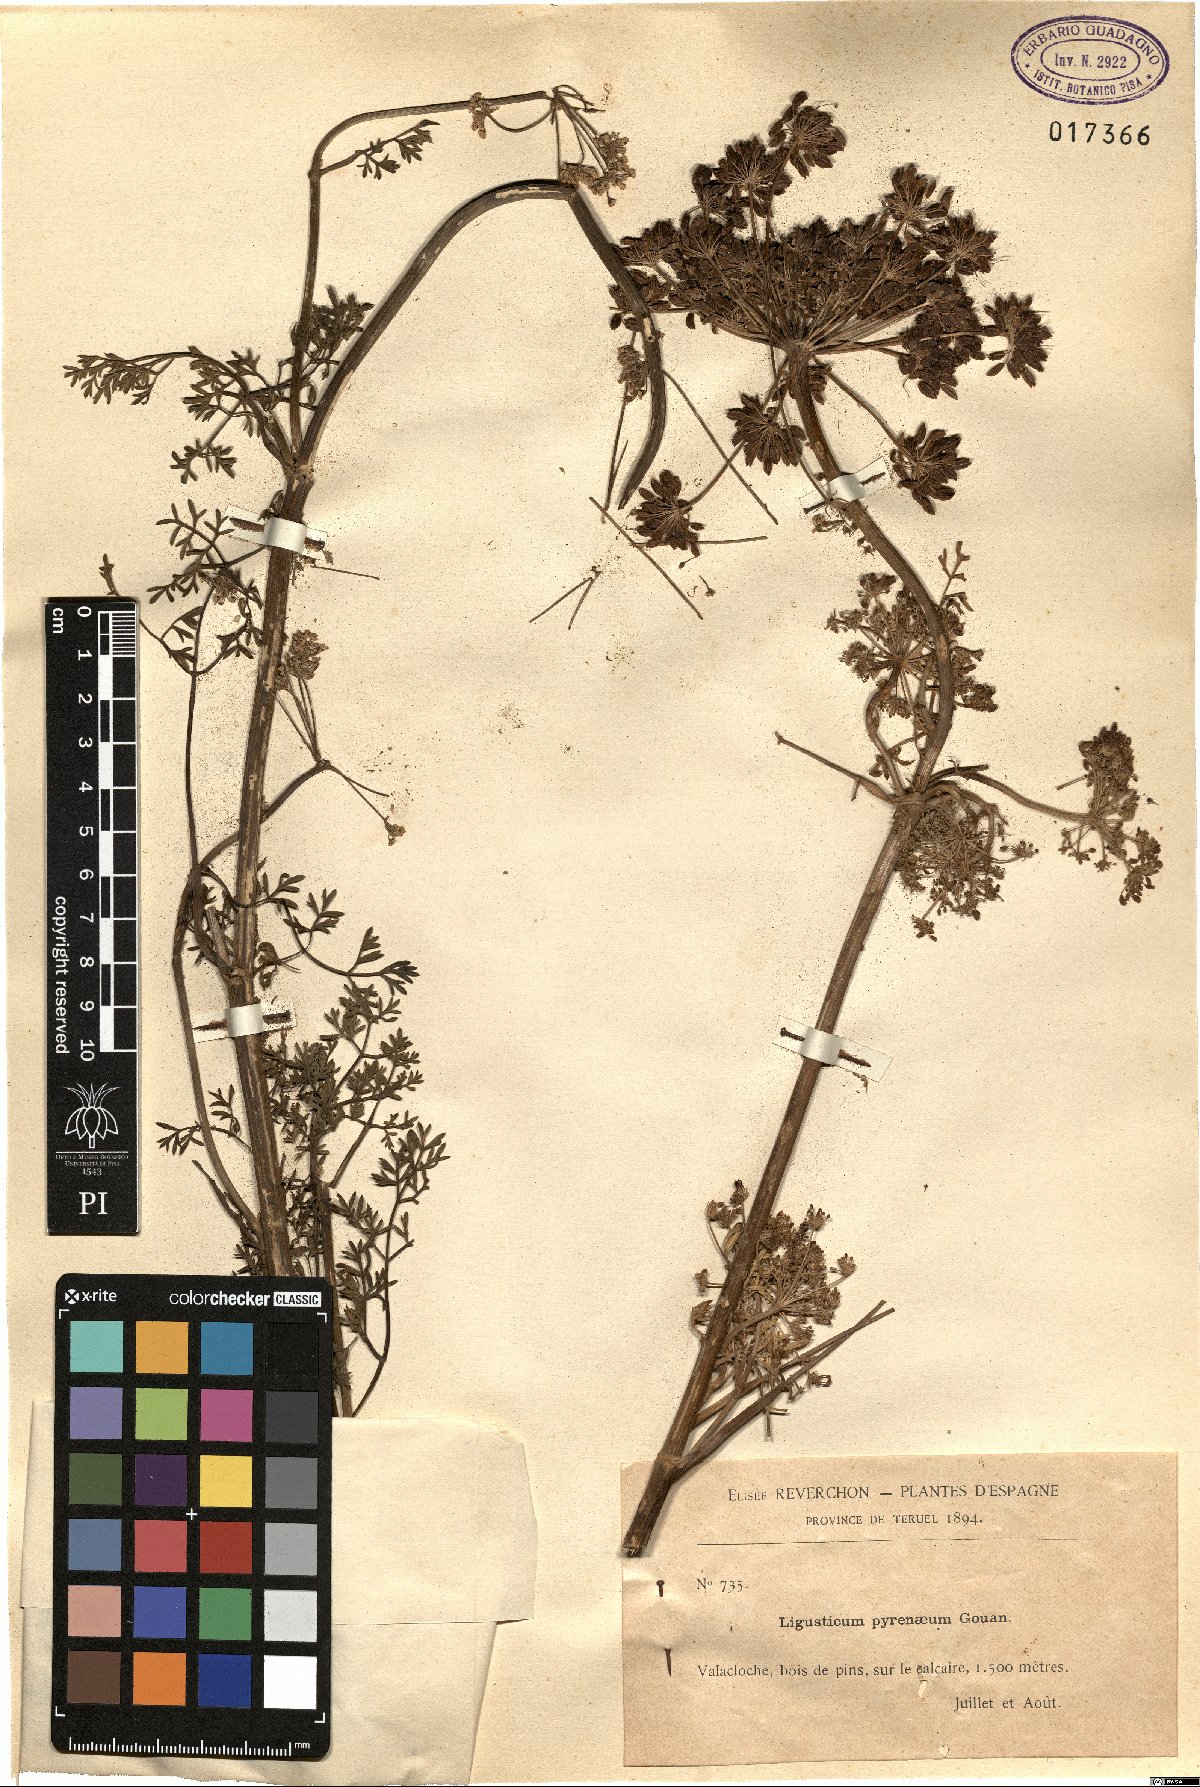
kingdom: Plantae
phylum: Tracheophyta
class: Magnoliopsida
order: Apiales
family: Apiaceae
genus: Coristospermum
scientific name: Coristospermum lucidum
